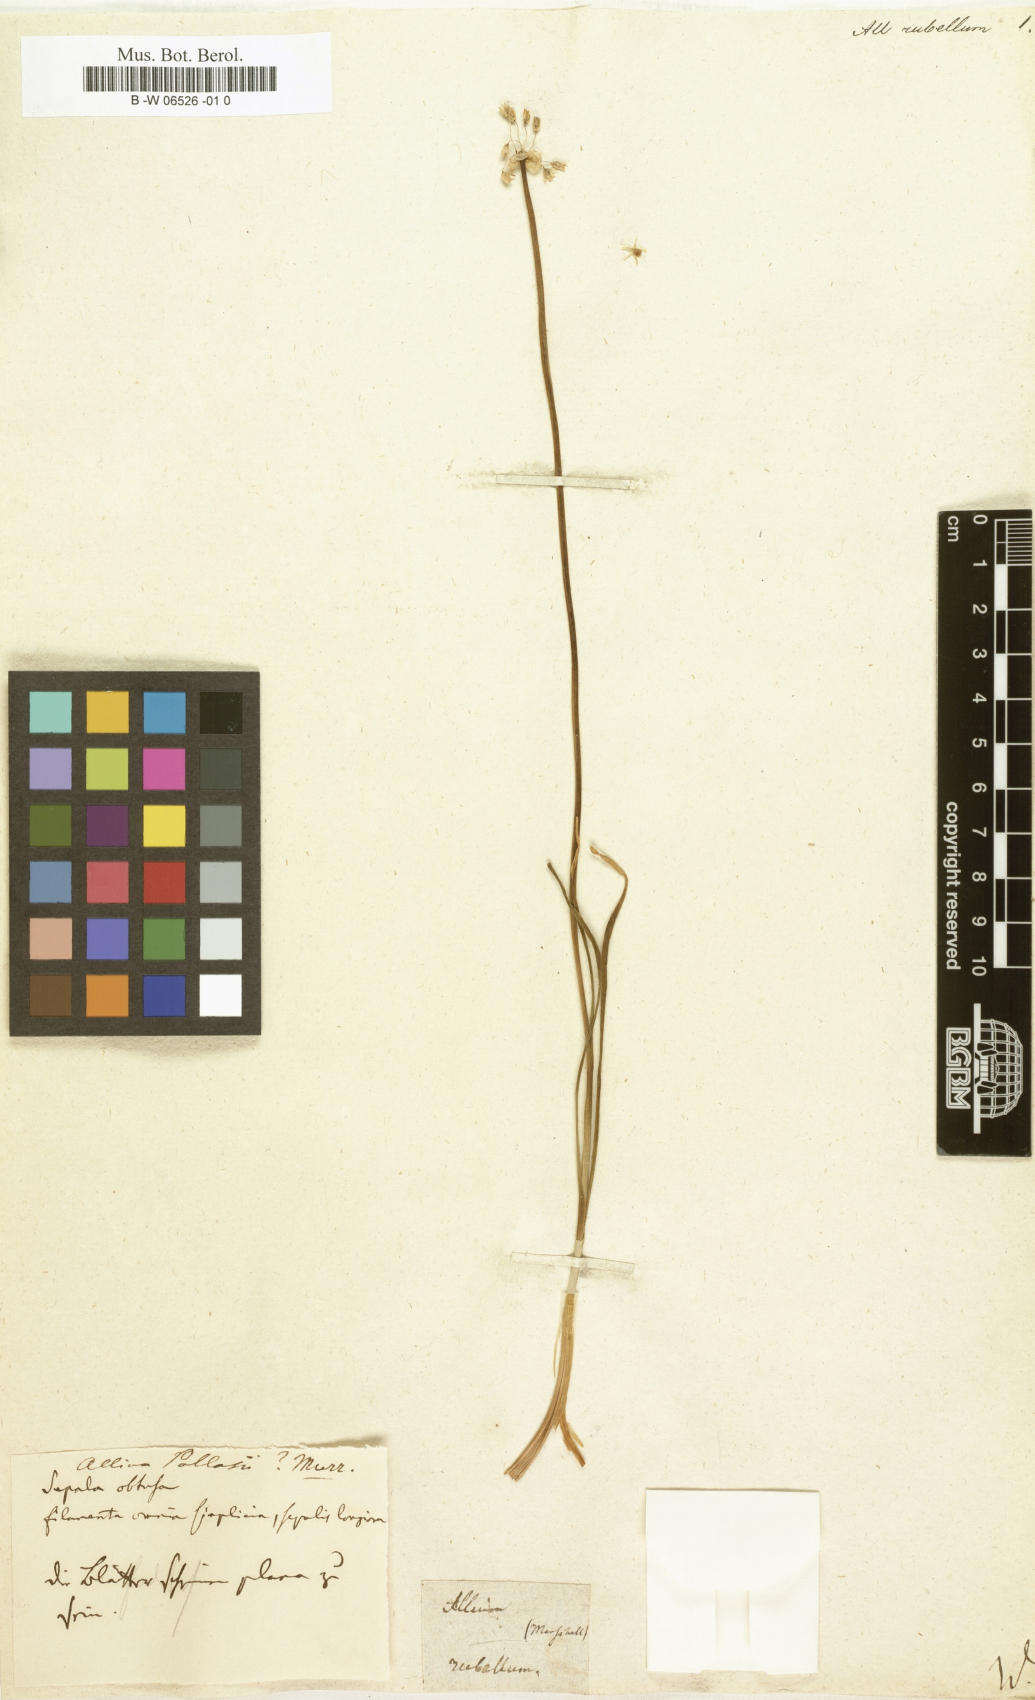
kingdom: Plantae
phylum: Tracheophyta
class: Liliopsida
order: Asparagales
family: Amaryllidaceae
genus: Allium
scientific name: Allium rubellum
